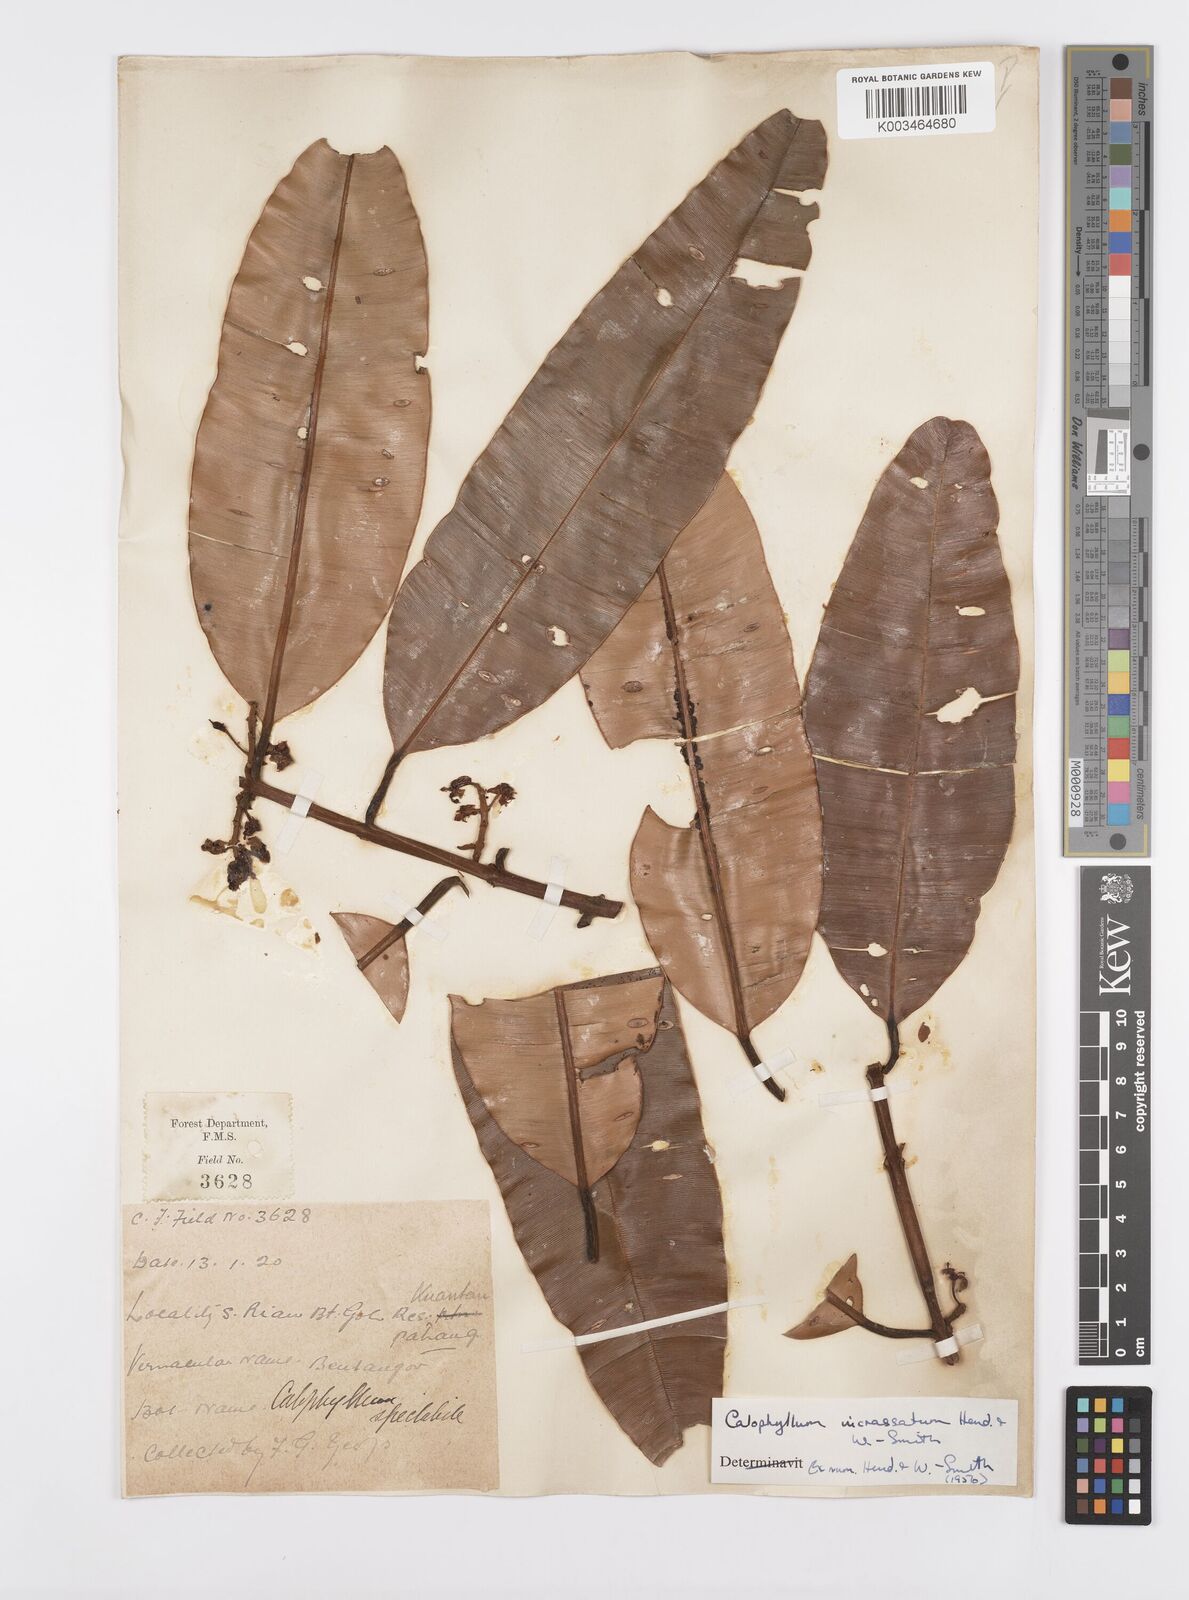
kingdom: Plantae
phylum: Tracheophyta
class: Magnoliopsida
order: Malpighiales
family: Calophyllaceae
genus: Calophyllum
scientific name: Calophyllum wallichiana
